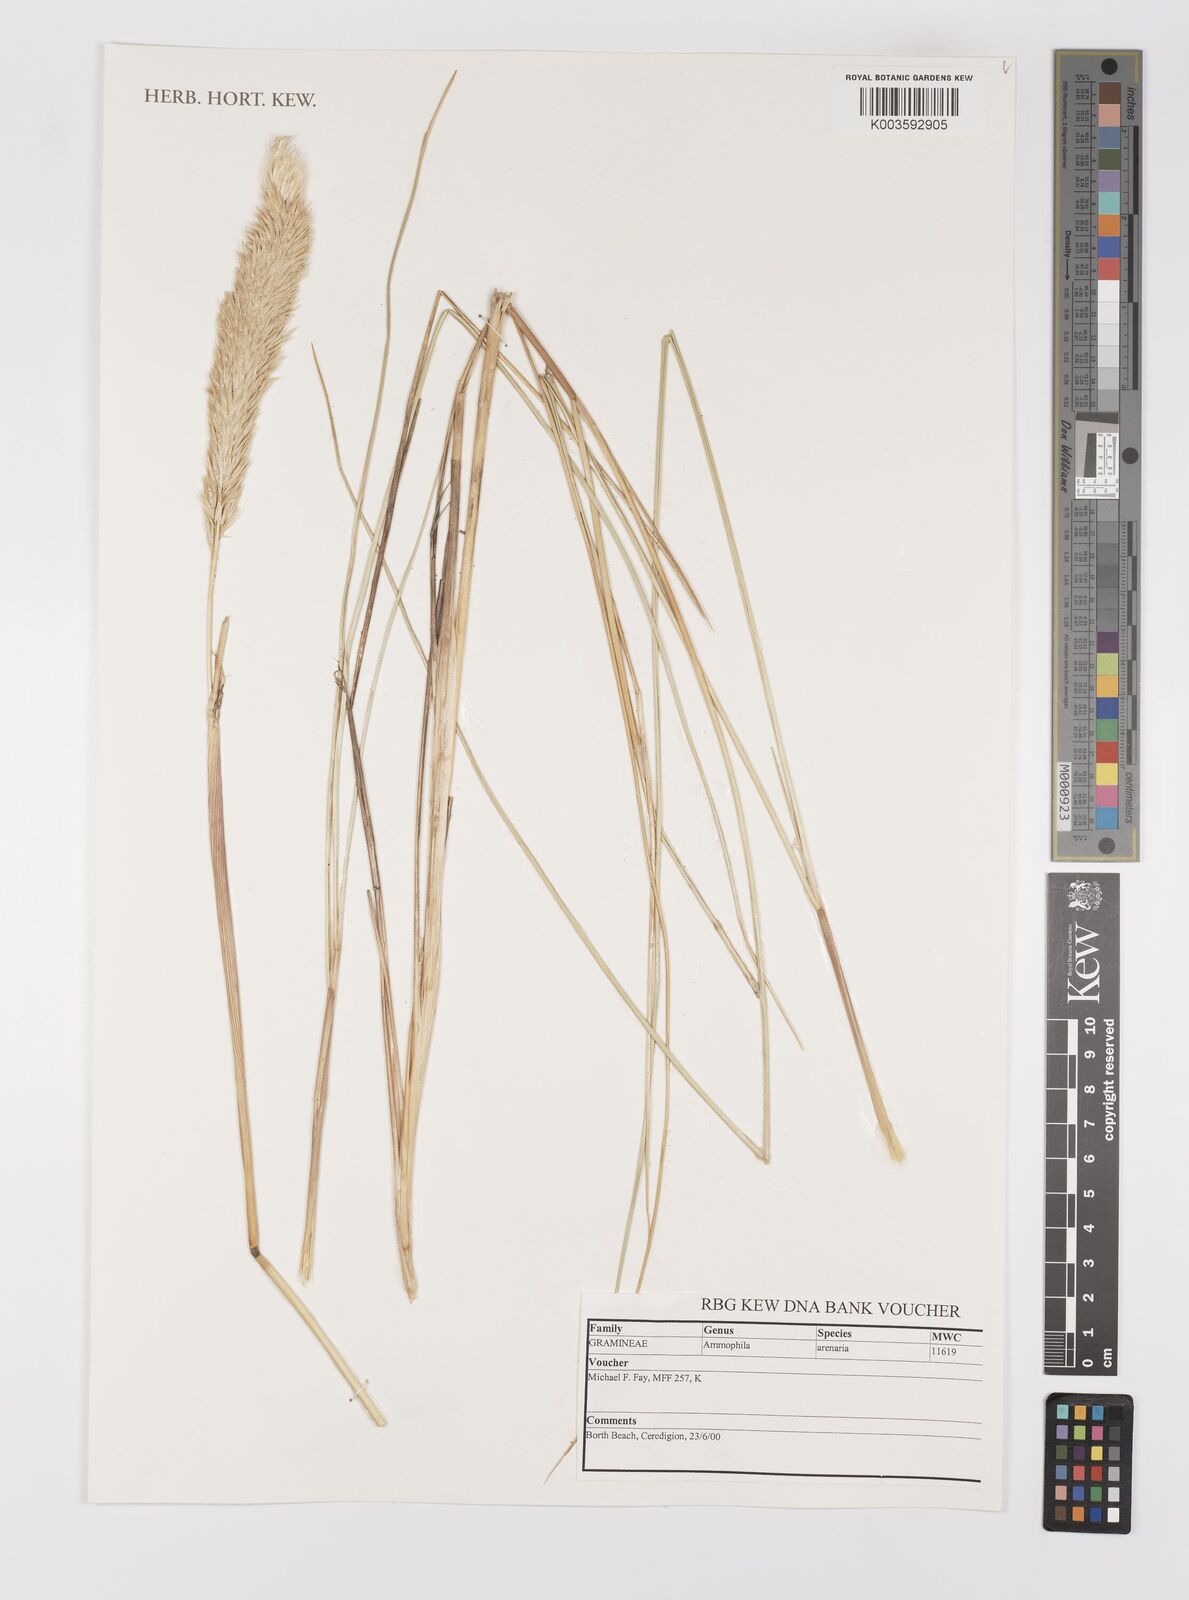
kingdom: Plantae
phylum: Tracheophyta
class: Liliopsida
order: Poales
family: Poaceae
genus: Calamagrostis
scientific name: Calamagrostis arenaria
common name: European beachgrass
